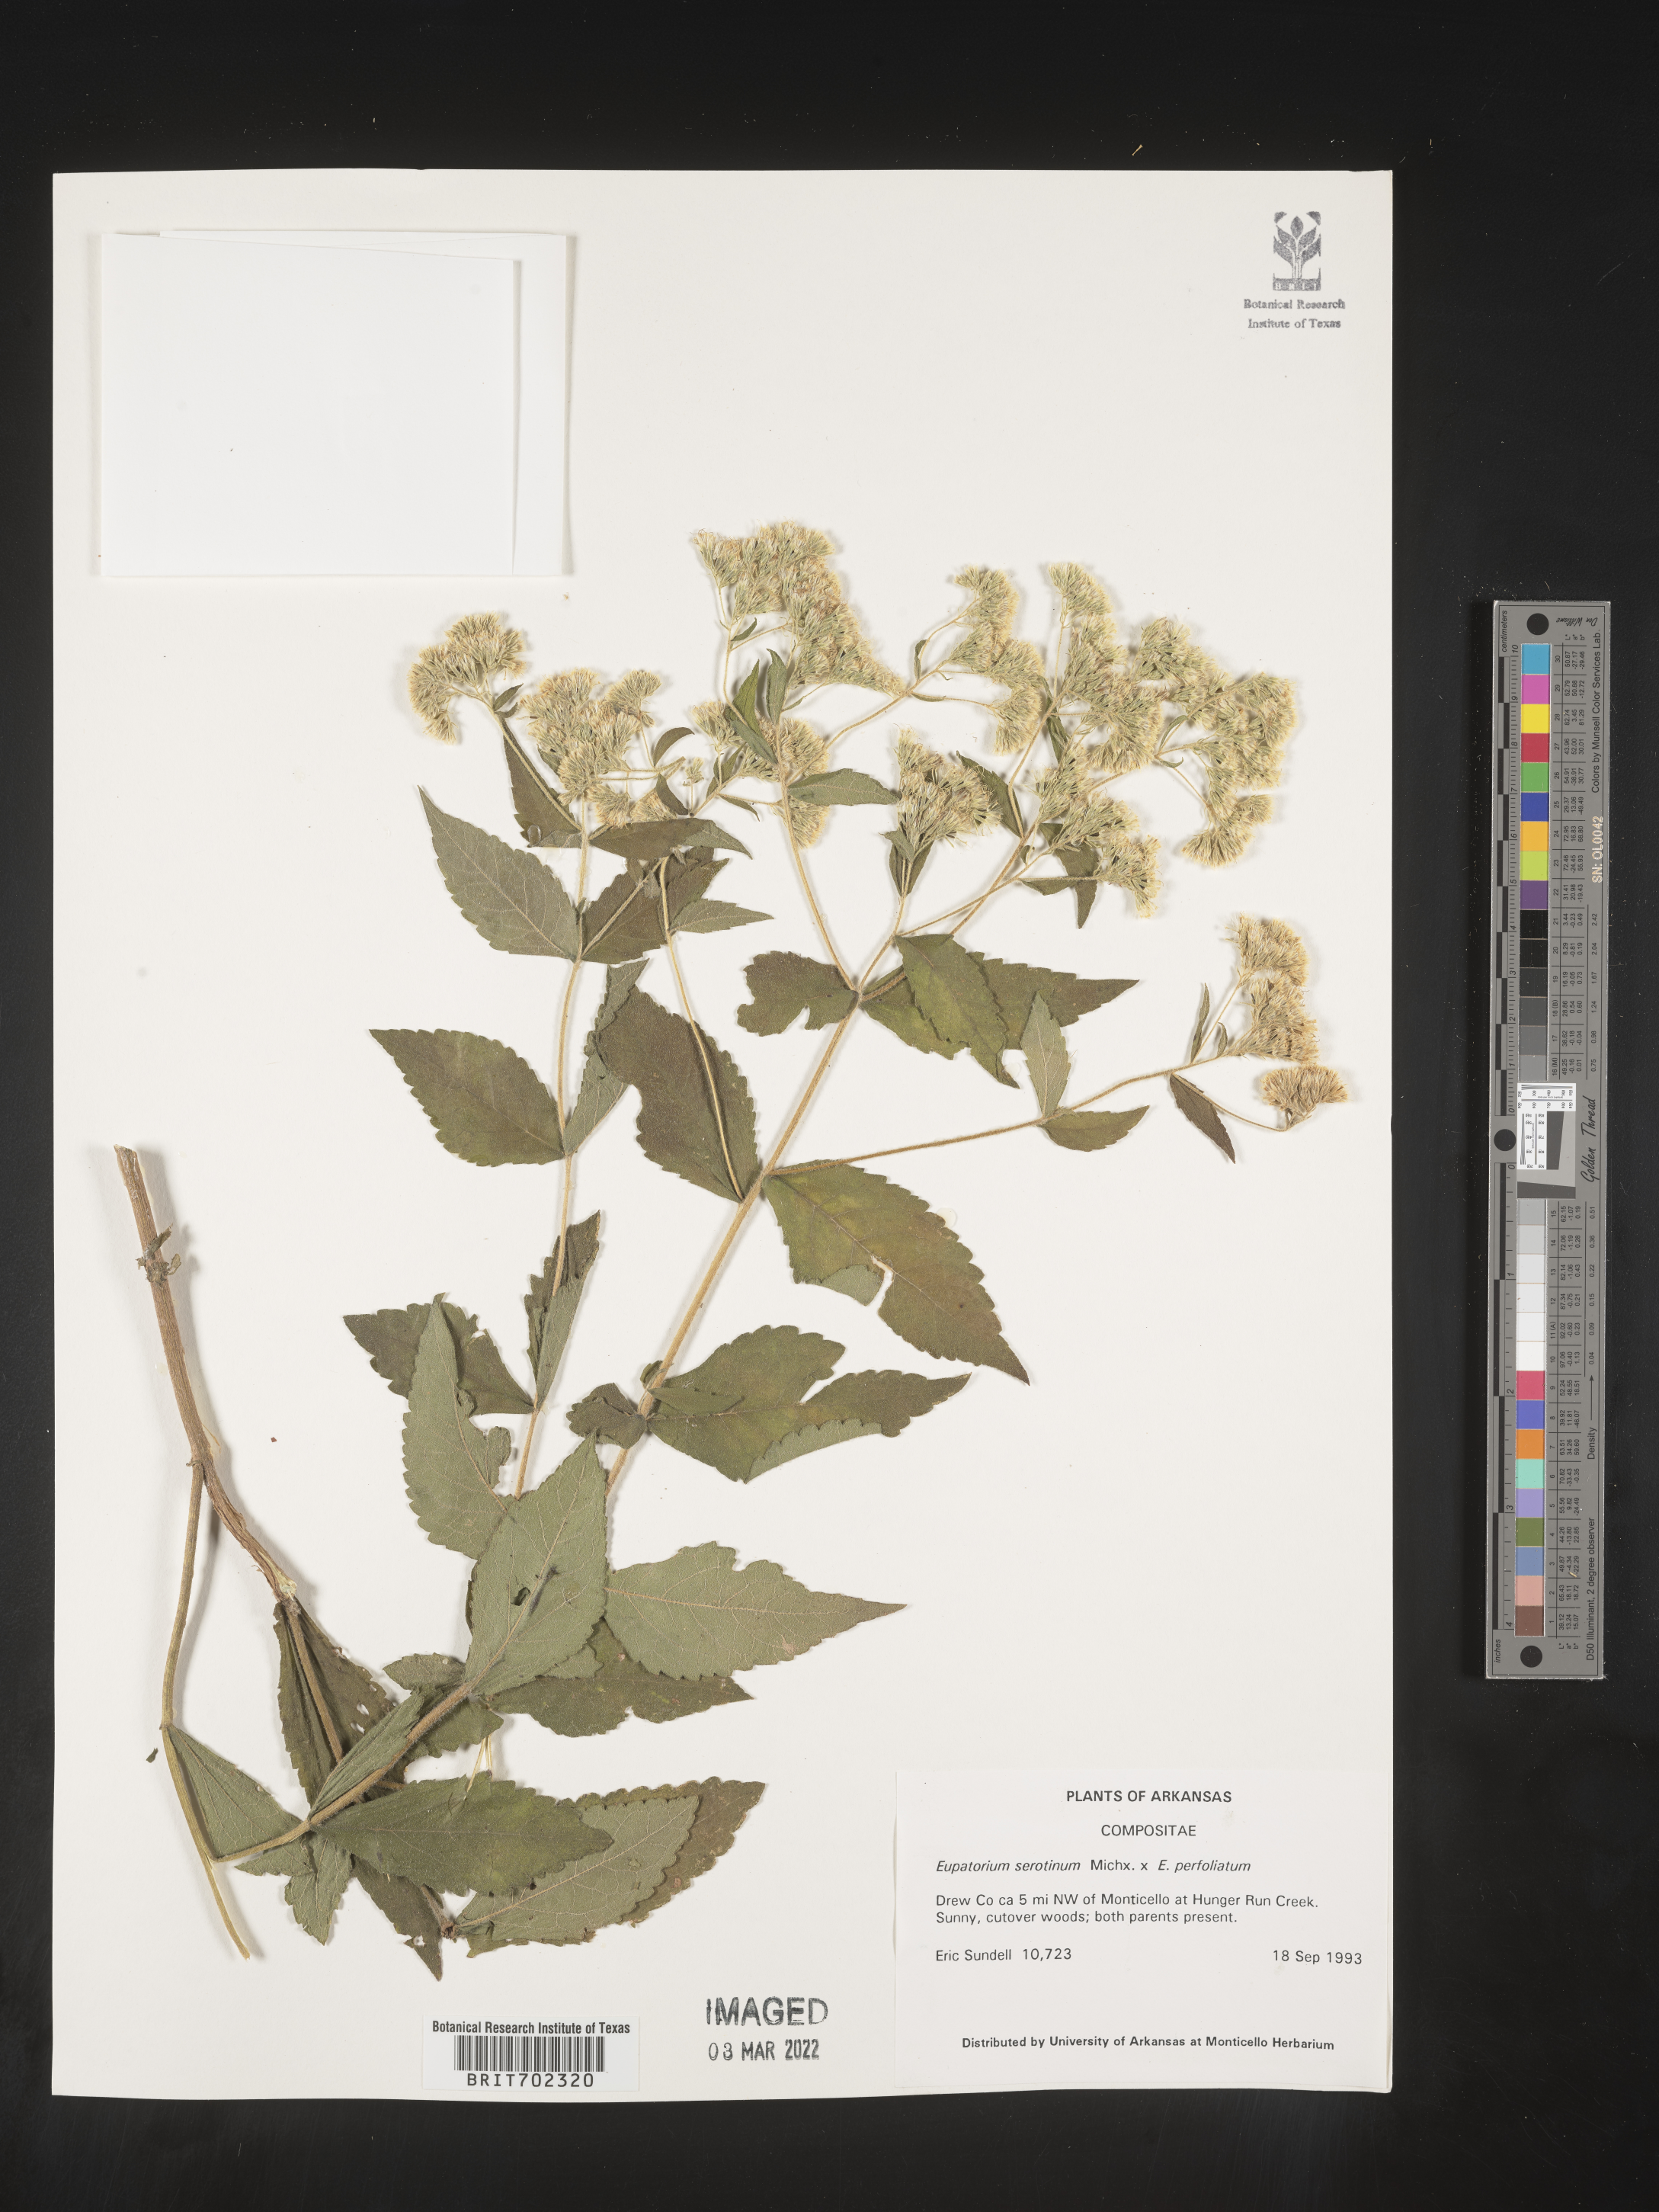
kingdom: Plantae
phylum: Tracheophyta
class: Magnoliopsida
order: Asterales
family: Asteraceae
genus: Eupatorium
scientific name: Eupatorium serotinum
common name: Late boneset
